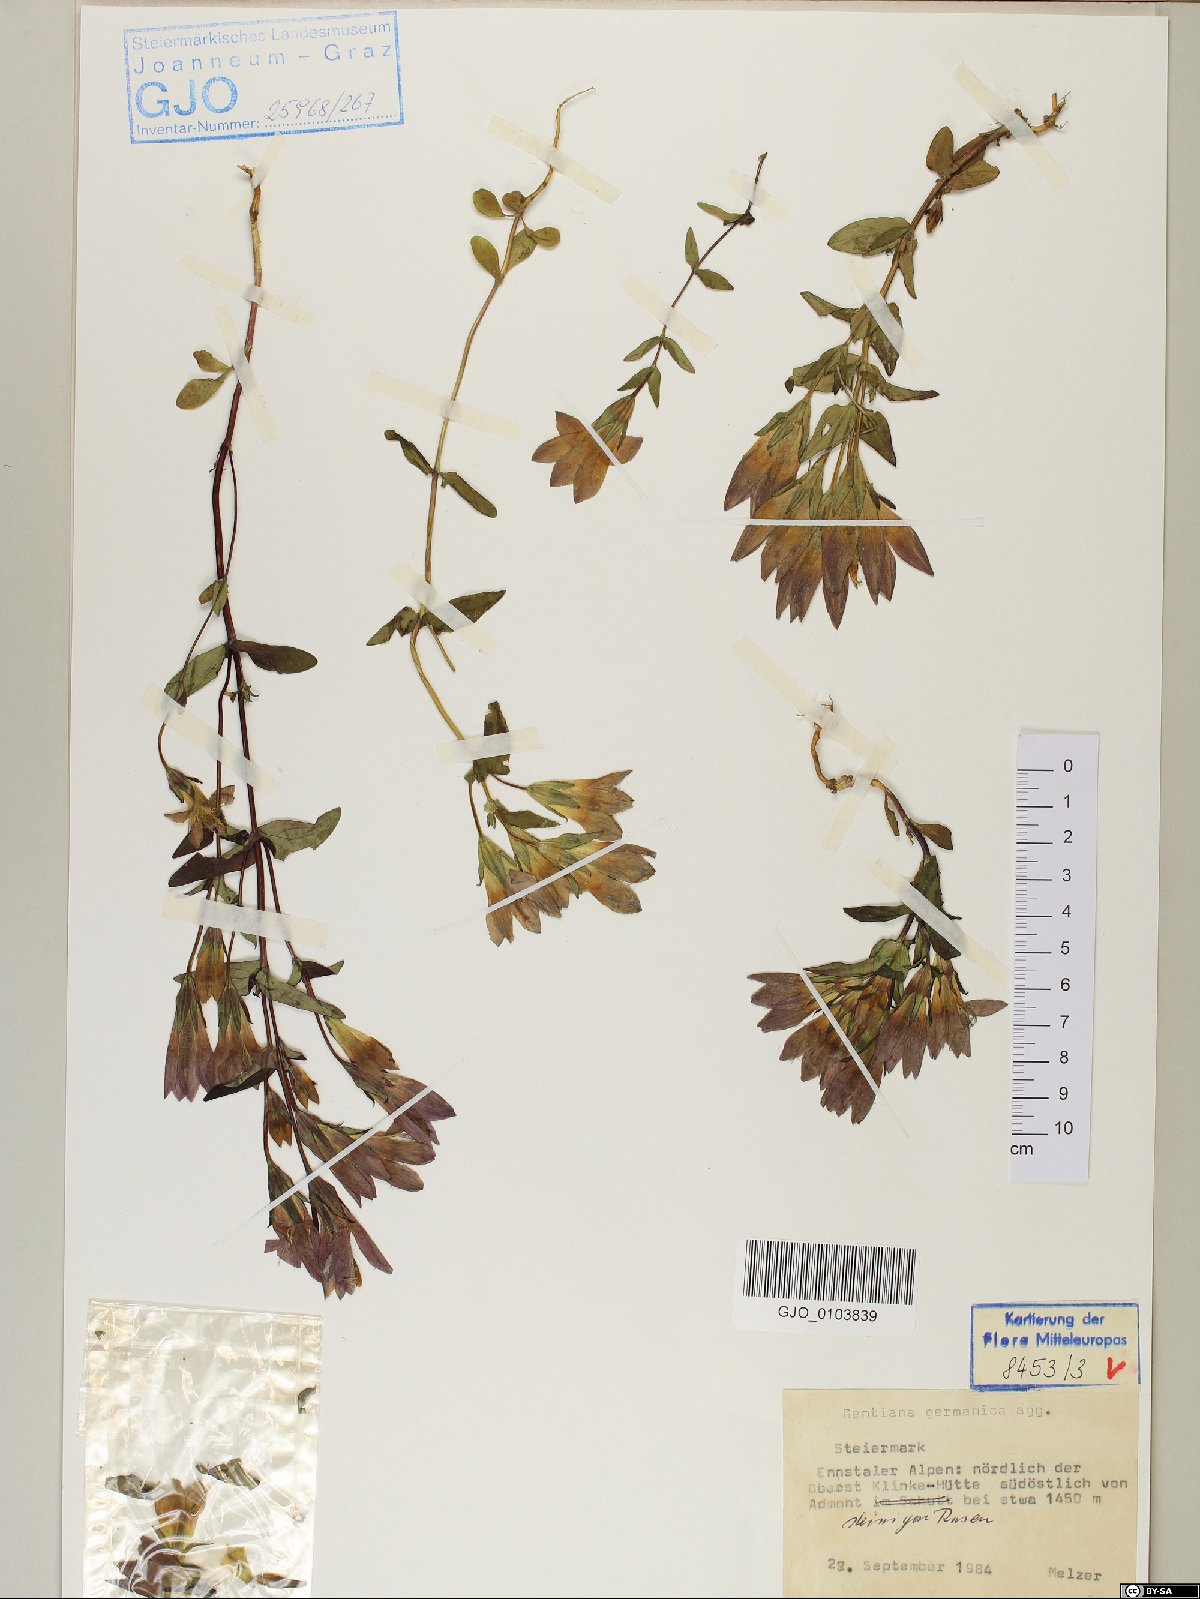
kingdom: Plantae
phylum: Tracheophyta
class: Magnoliopsida
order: Gentianales
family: Gentianaceae
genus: Gentianella
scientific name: Gentianella germanica
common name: Chiltern-gentian
